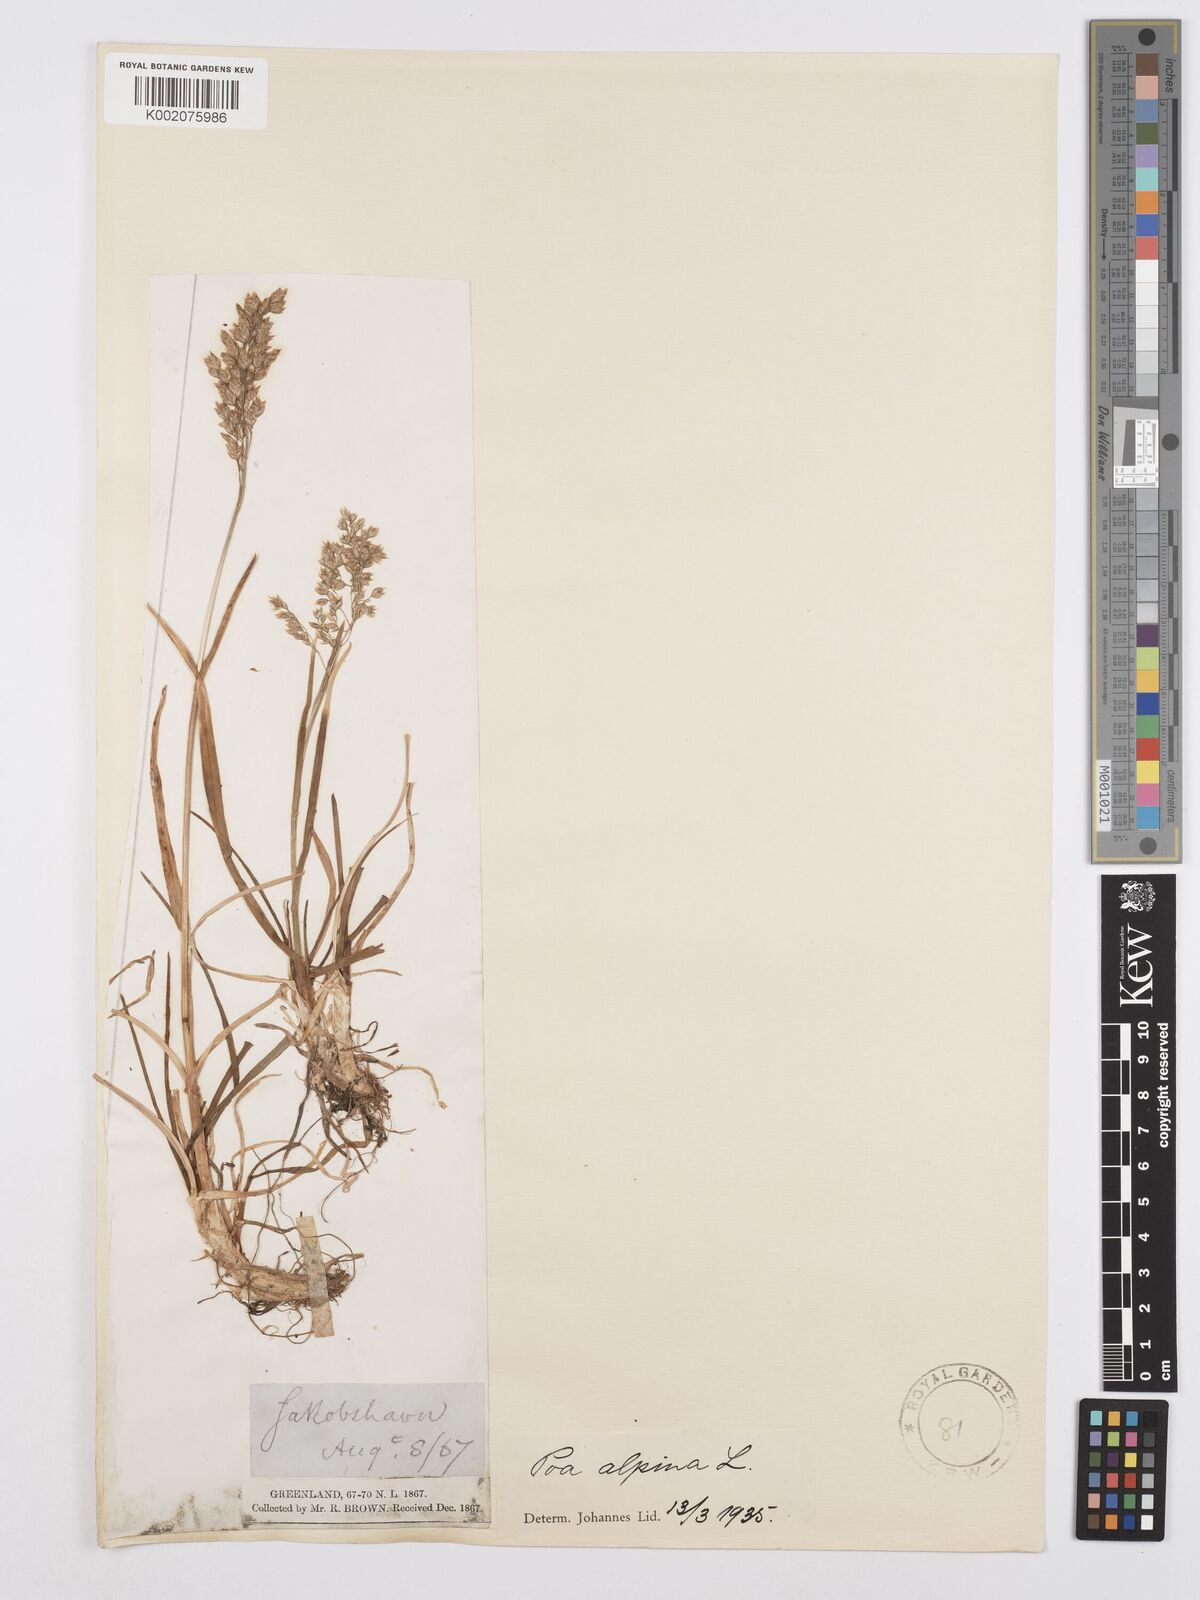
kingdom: Plantae
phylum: Tracheophyta
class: Liliopsida
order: Poales
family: Poaceae
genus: Poa
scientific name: Poa alpina
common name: Alpine bluegrass
